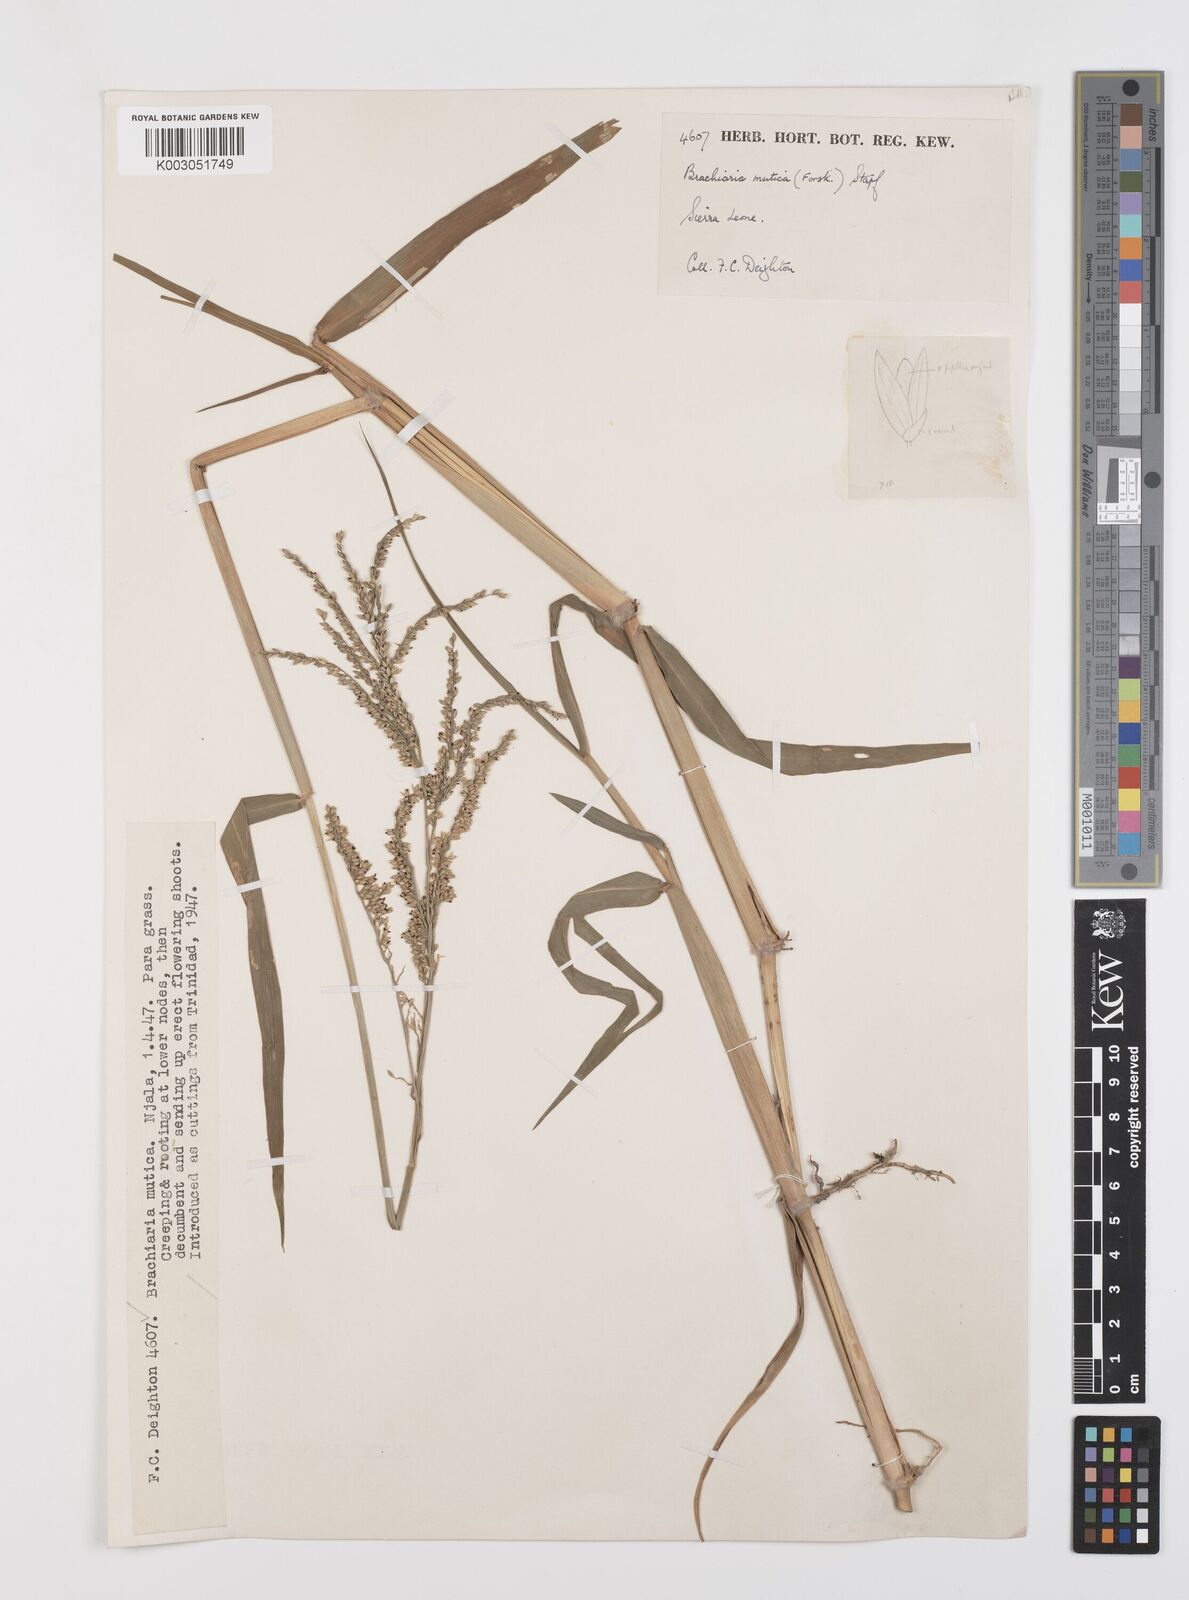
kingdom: Plantae
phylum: Tracheophyta
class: Liliopsida
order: Poales
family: Poaceae
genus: Urochloa
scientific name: Urochloa mutica
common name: Para grass
